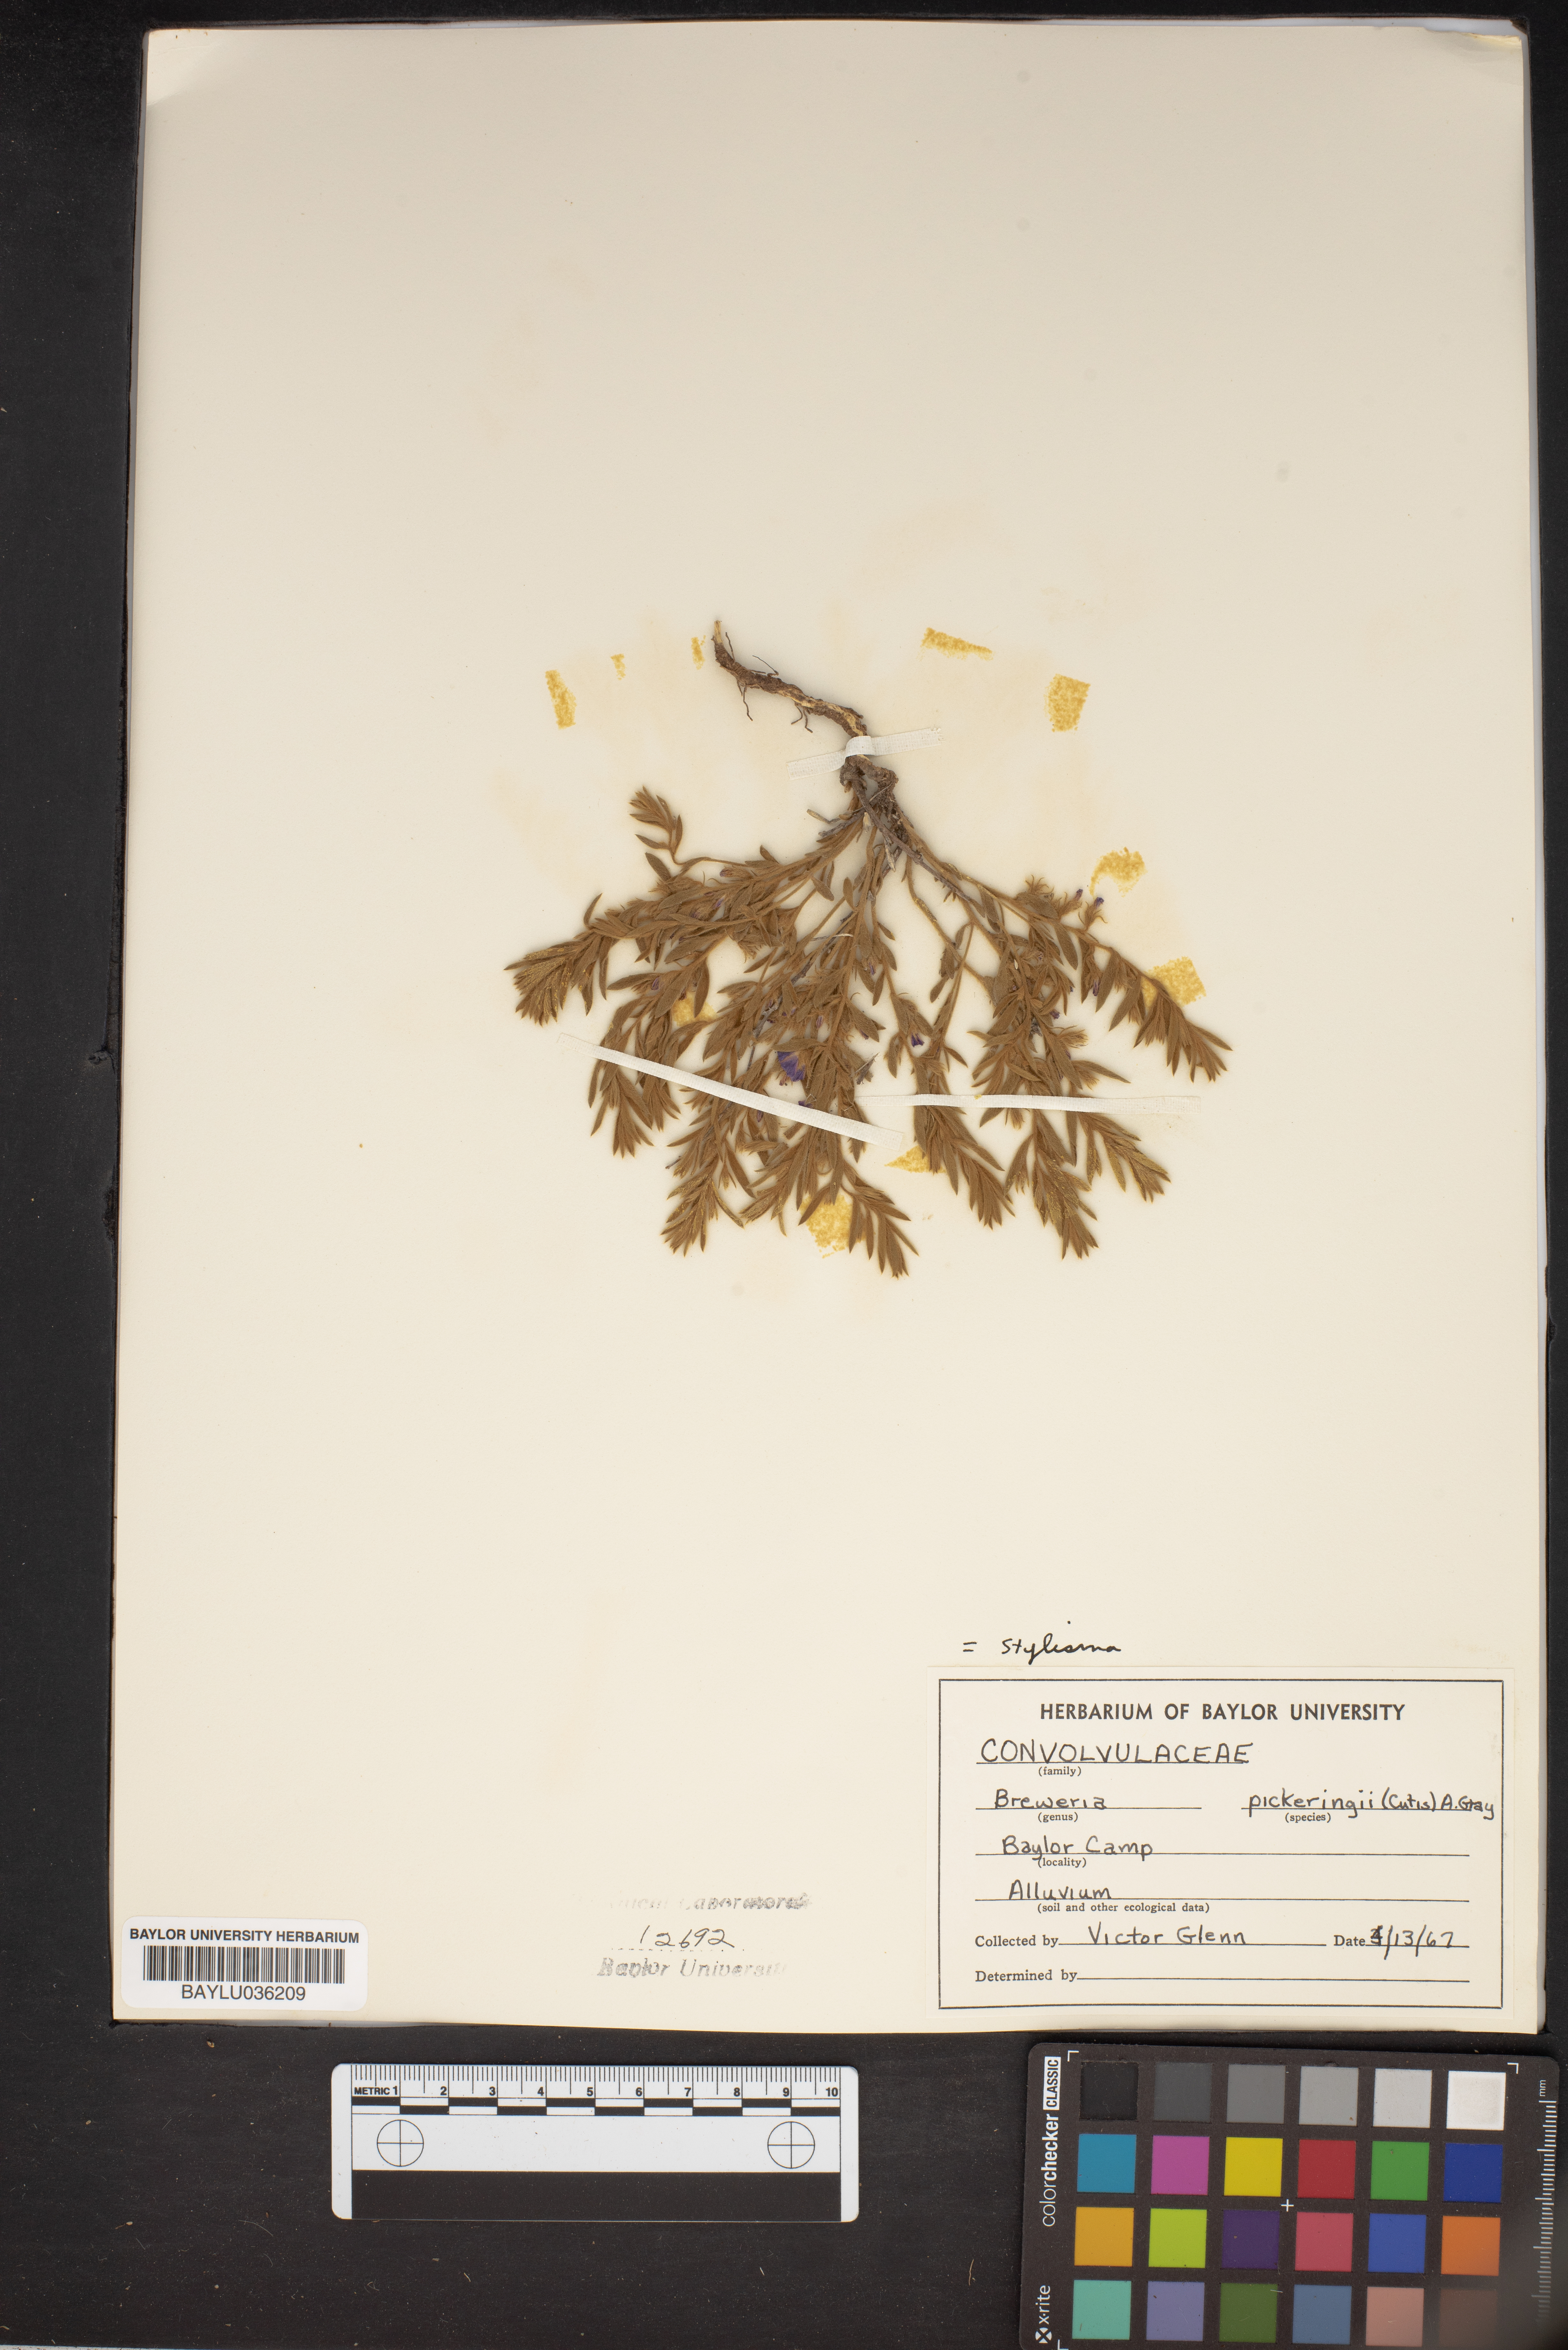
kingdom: Plantae
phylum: Tracheophyta
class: Magnoliopsida
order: Solanales
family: Convolvulaceae
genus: Stylisma
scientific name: Stylisma pickeringii
